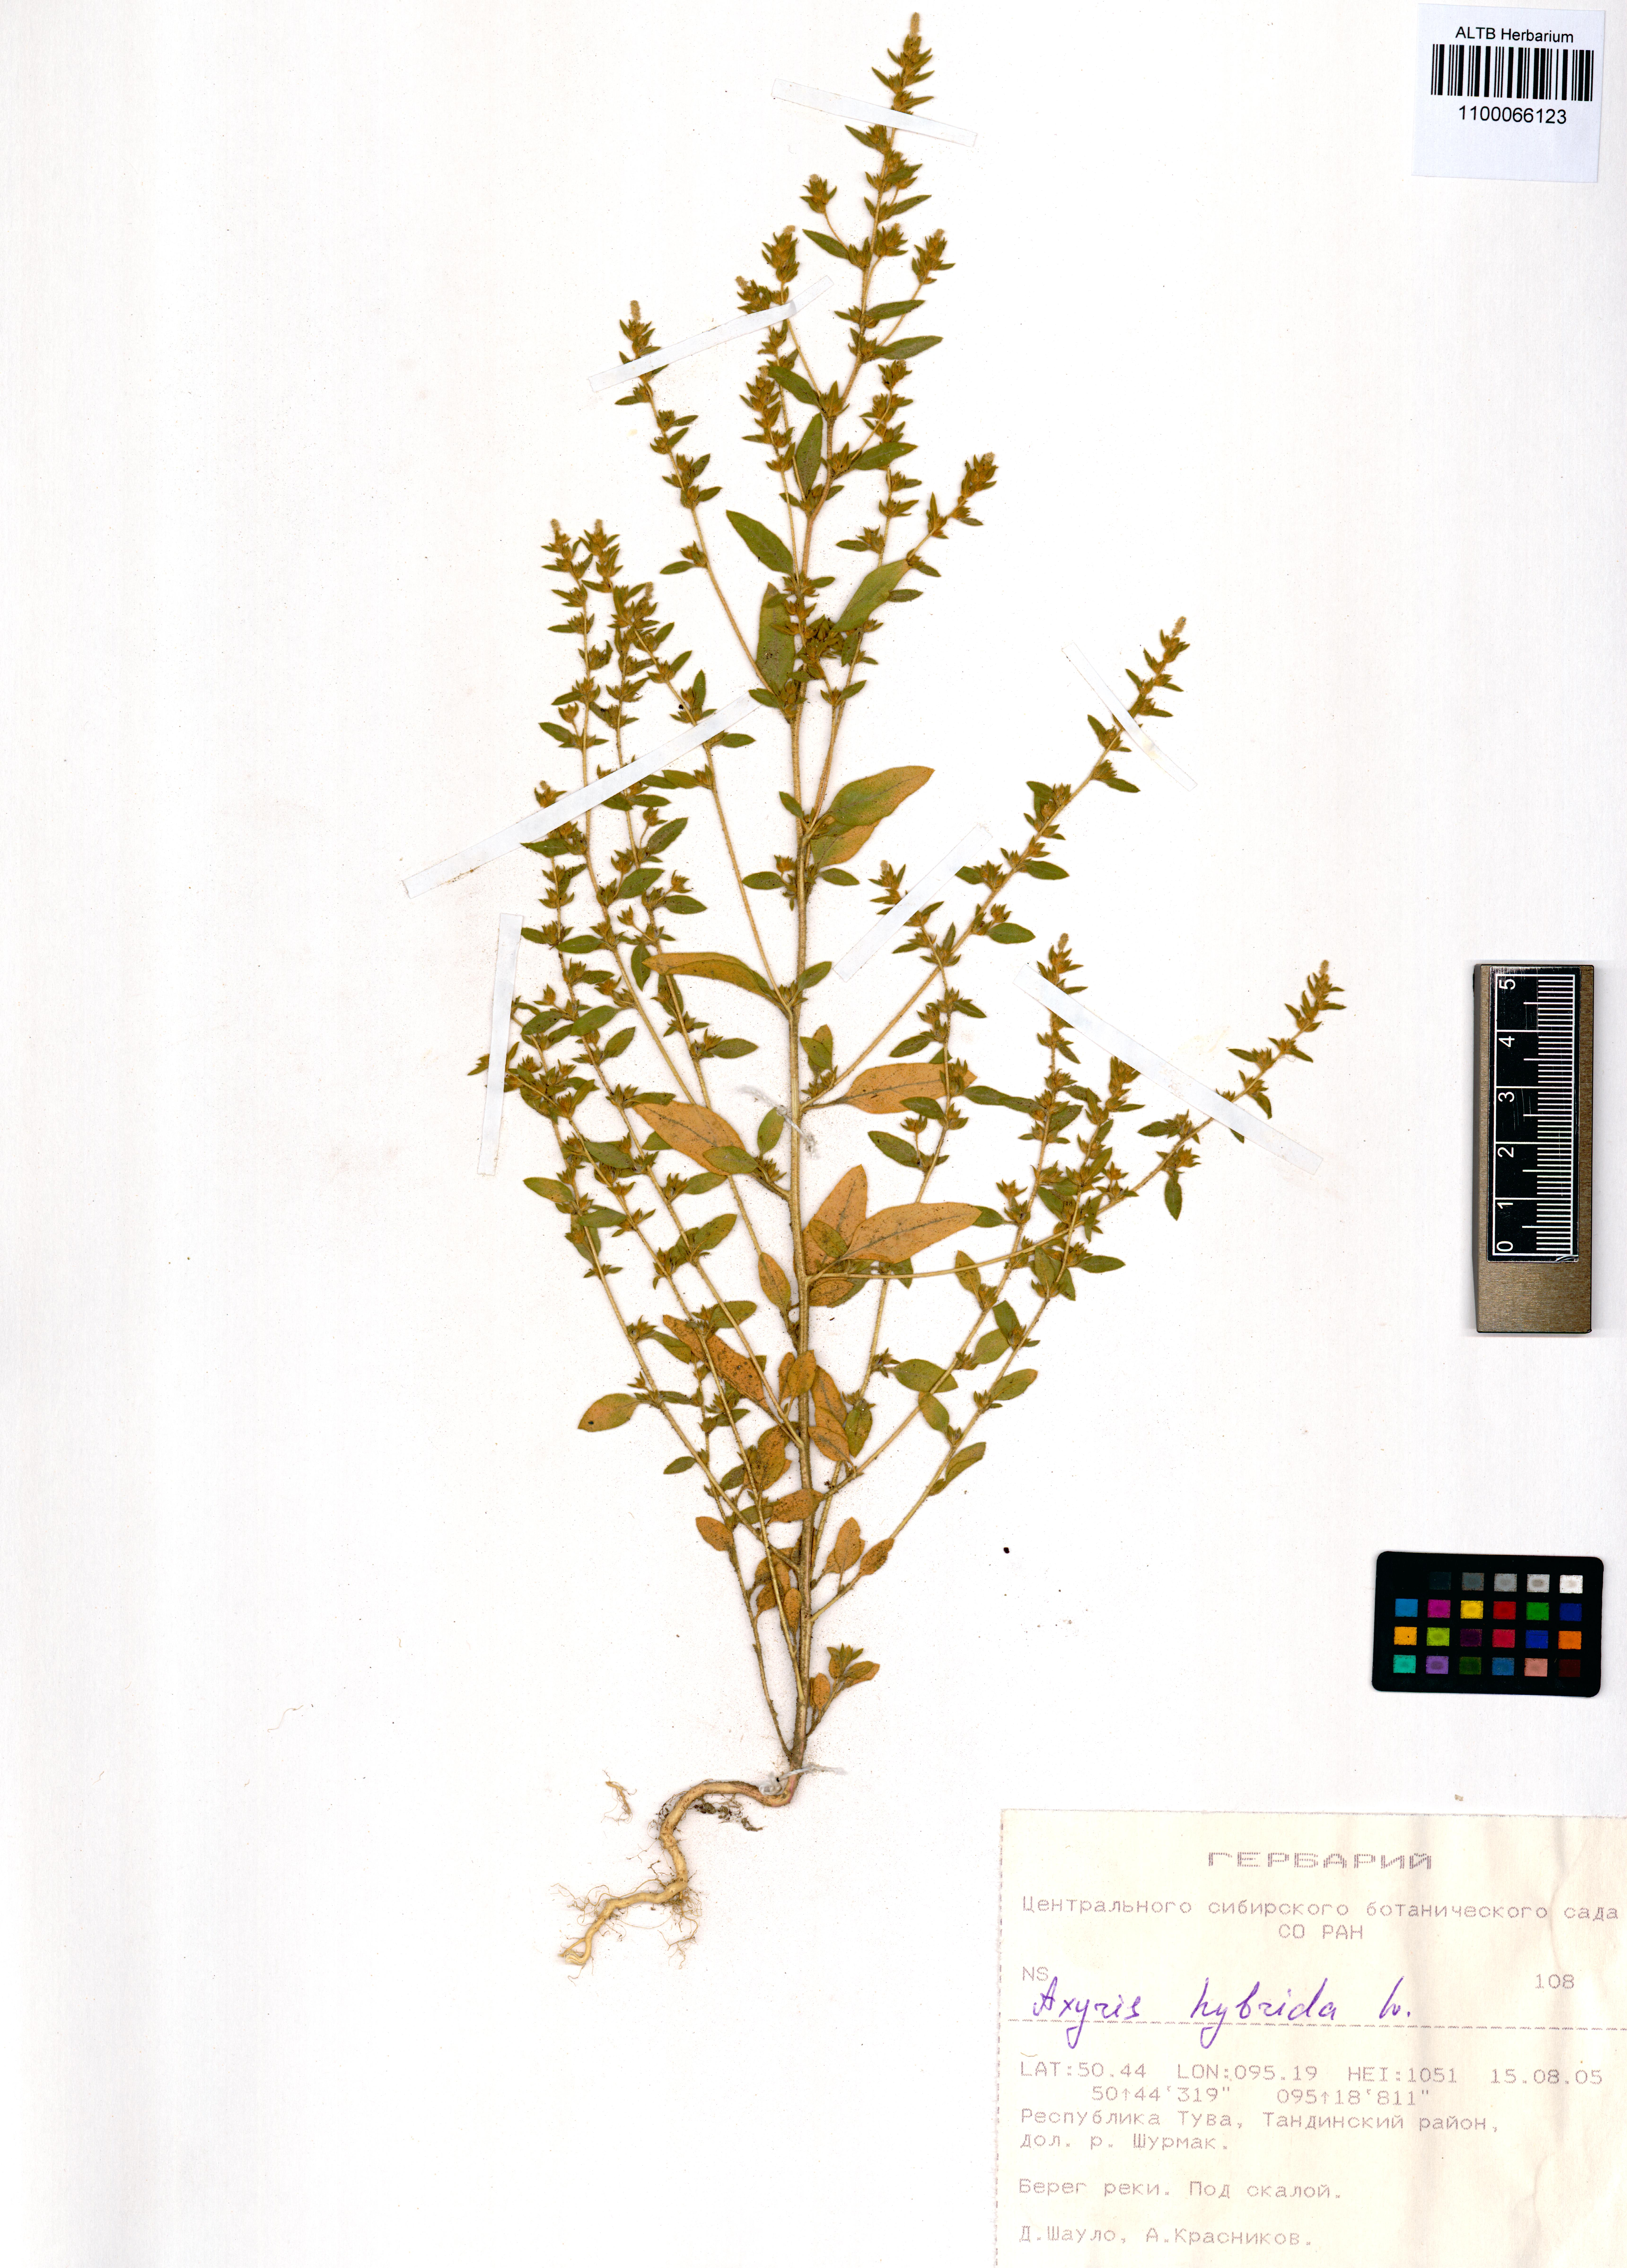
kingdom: Plantae
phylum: Tracheophyta
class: Magnoliopsida
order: Caryophyllales
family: Amaranthaceae
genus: Axyris
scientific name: Axyris hybrida
